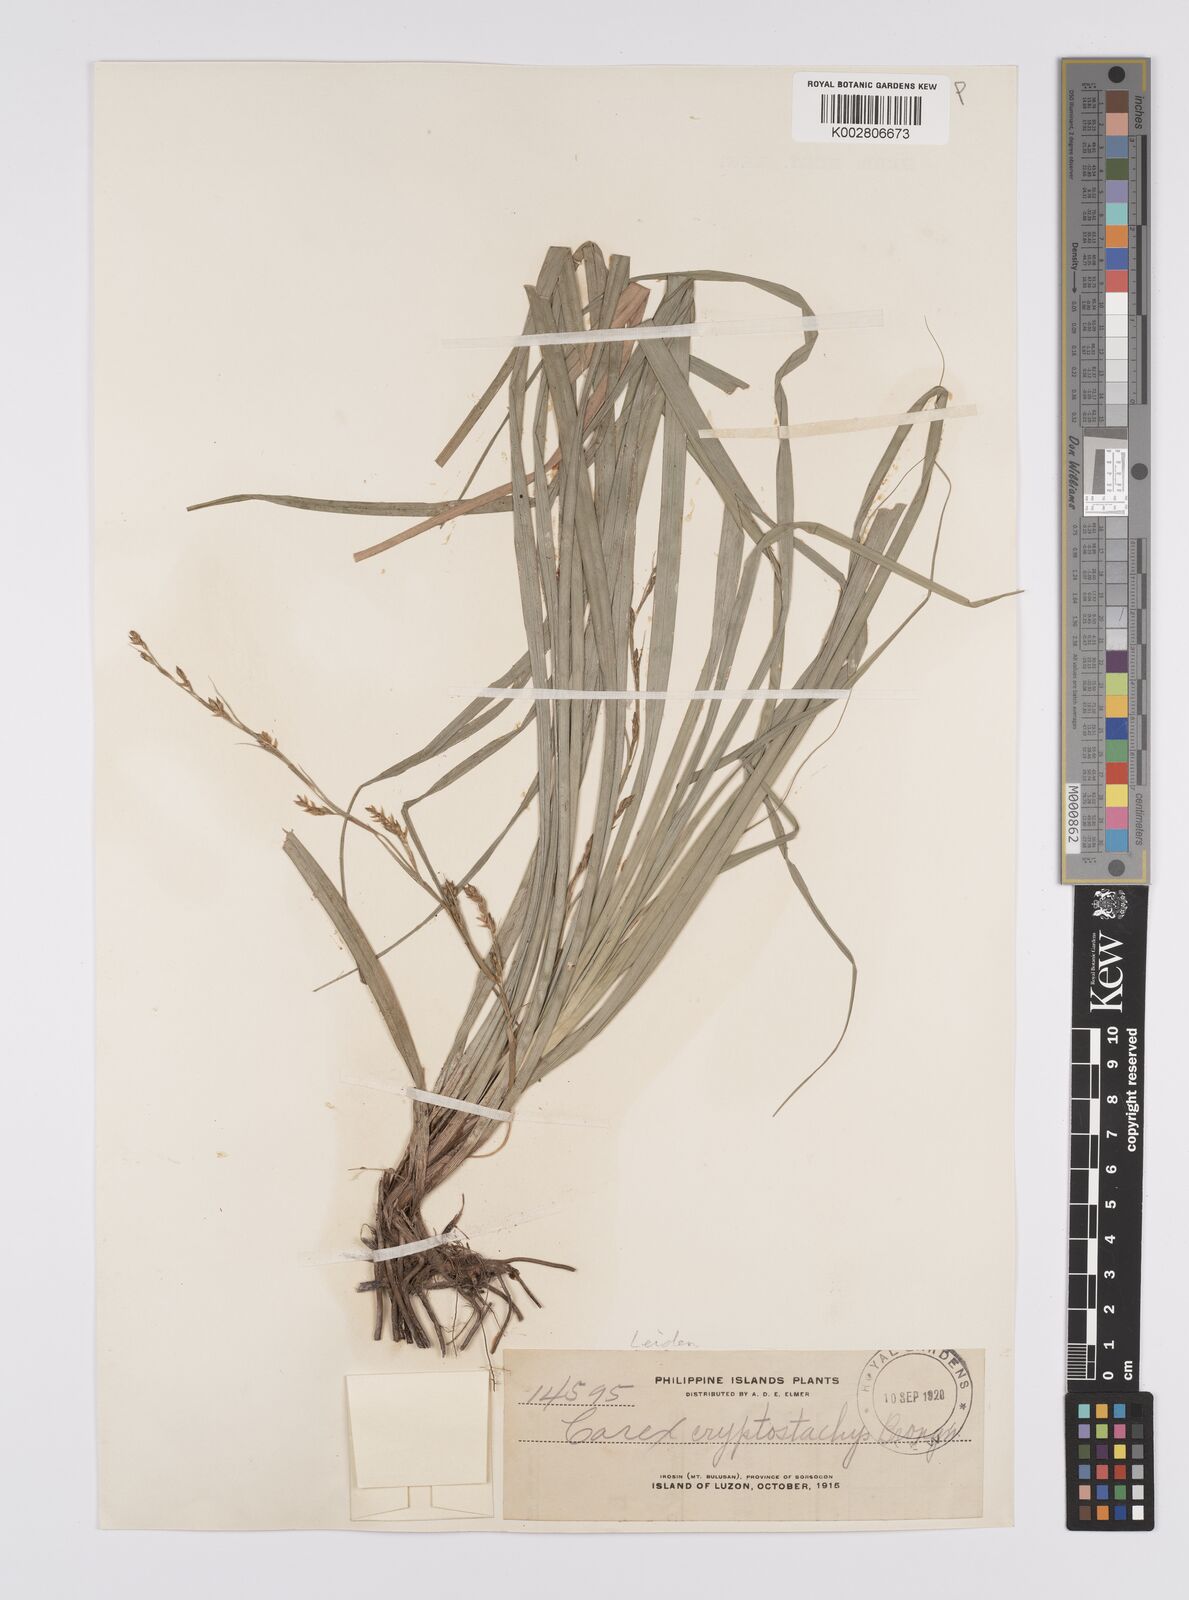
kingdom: Plantae
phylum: Tracheophyta
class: Liliopsida
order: Poales
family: Cyperaceae
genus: Carex
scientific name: Carex cryptostachys
